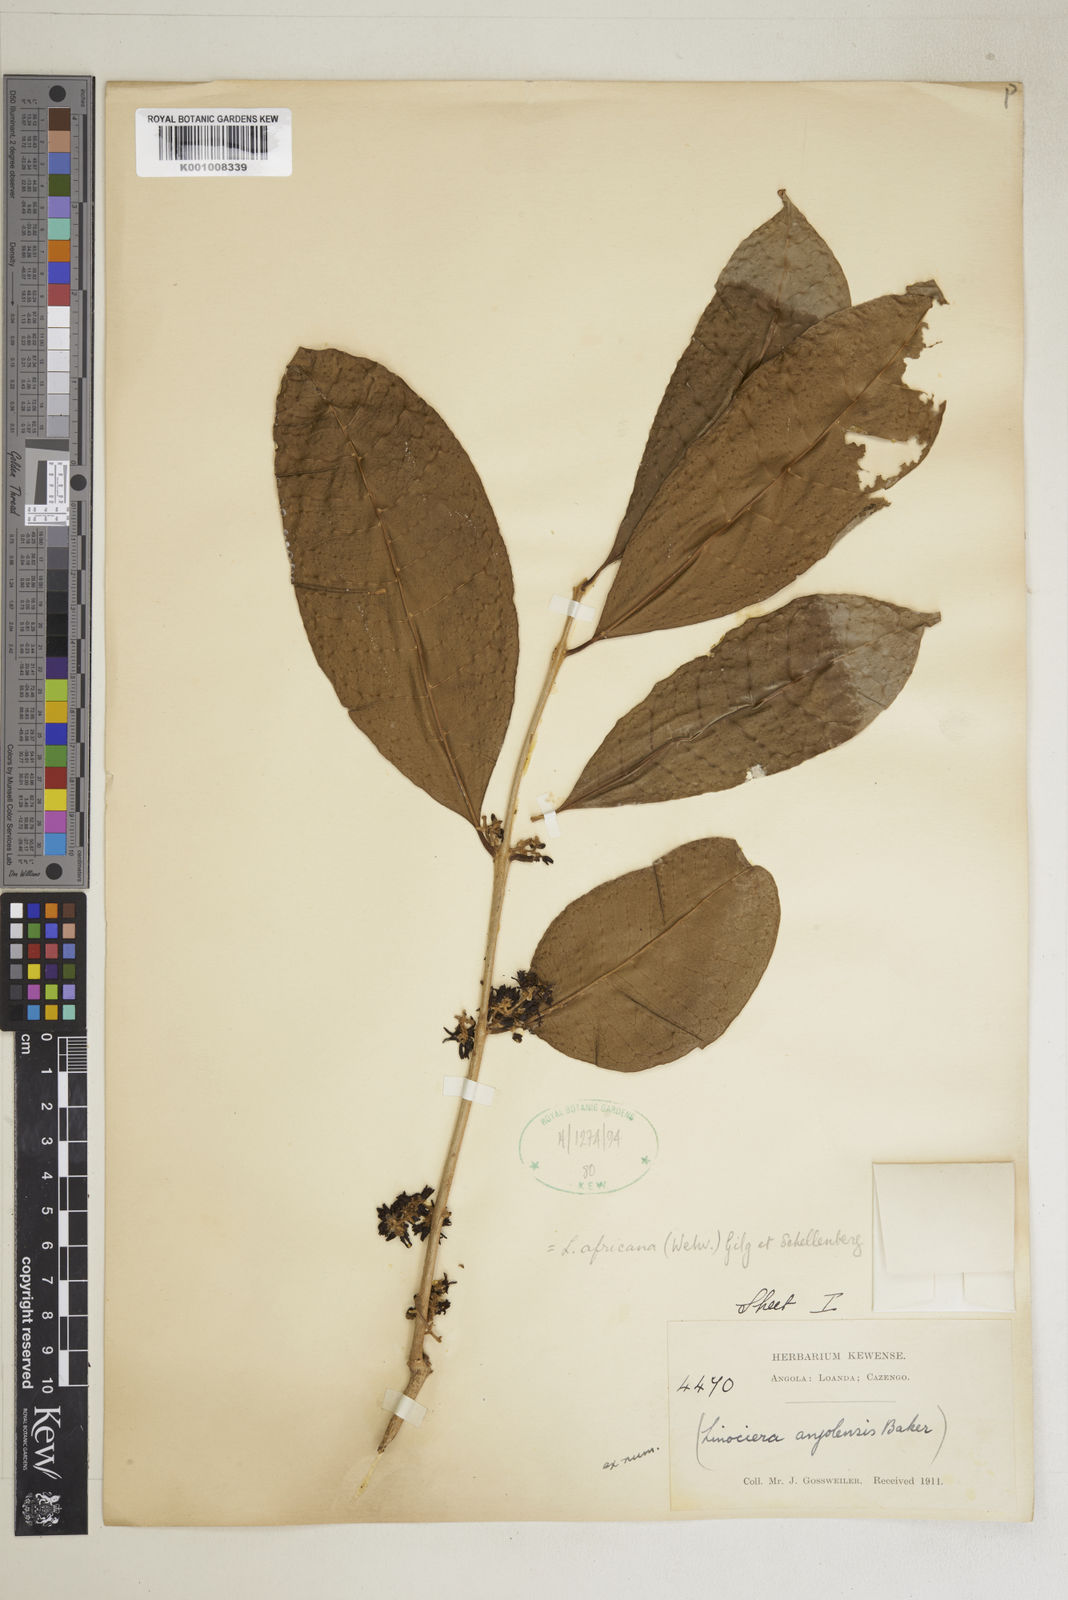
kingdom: Plantae
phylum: Tracheophyta
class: Magnoliopsida
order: Lamiales
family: Oleaceae
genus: Chionanthus
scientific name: Chionanthus
